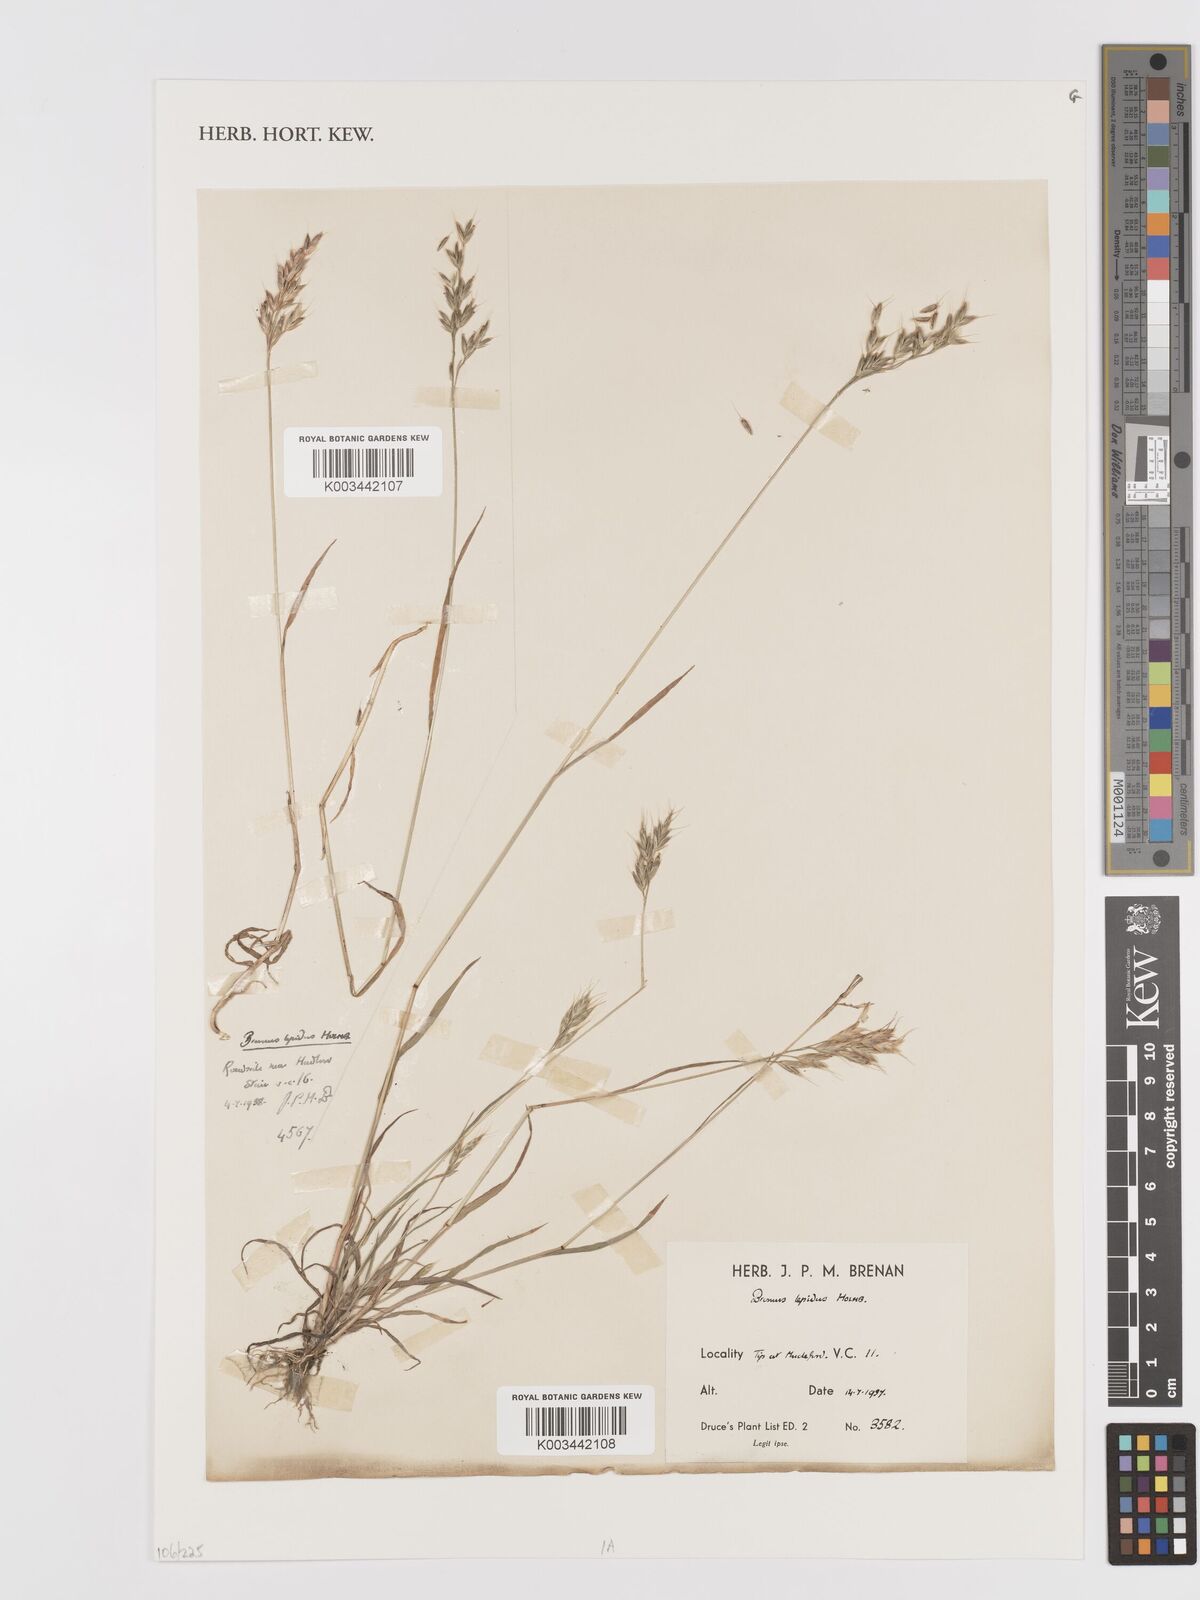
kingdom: Plantae
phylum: Tracheophyta
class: Liliopsida
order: Poales
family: Poaceae
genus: Bromus
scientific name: Bromus lepidus
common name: Slender soft-brome
